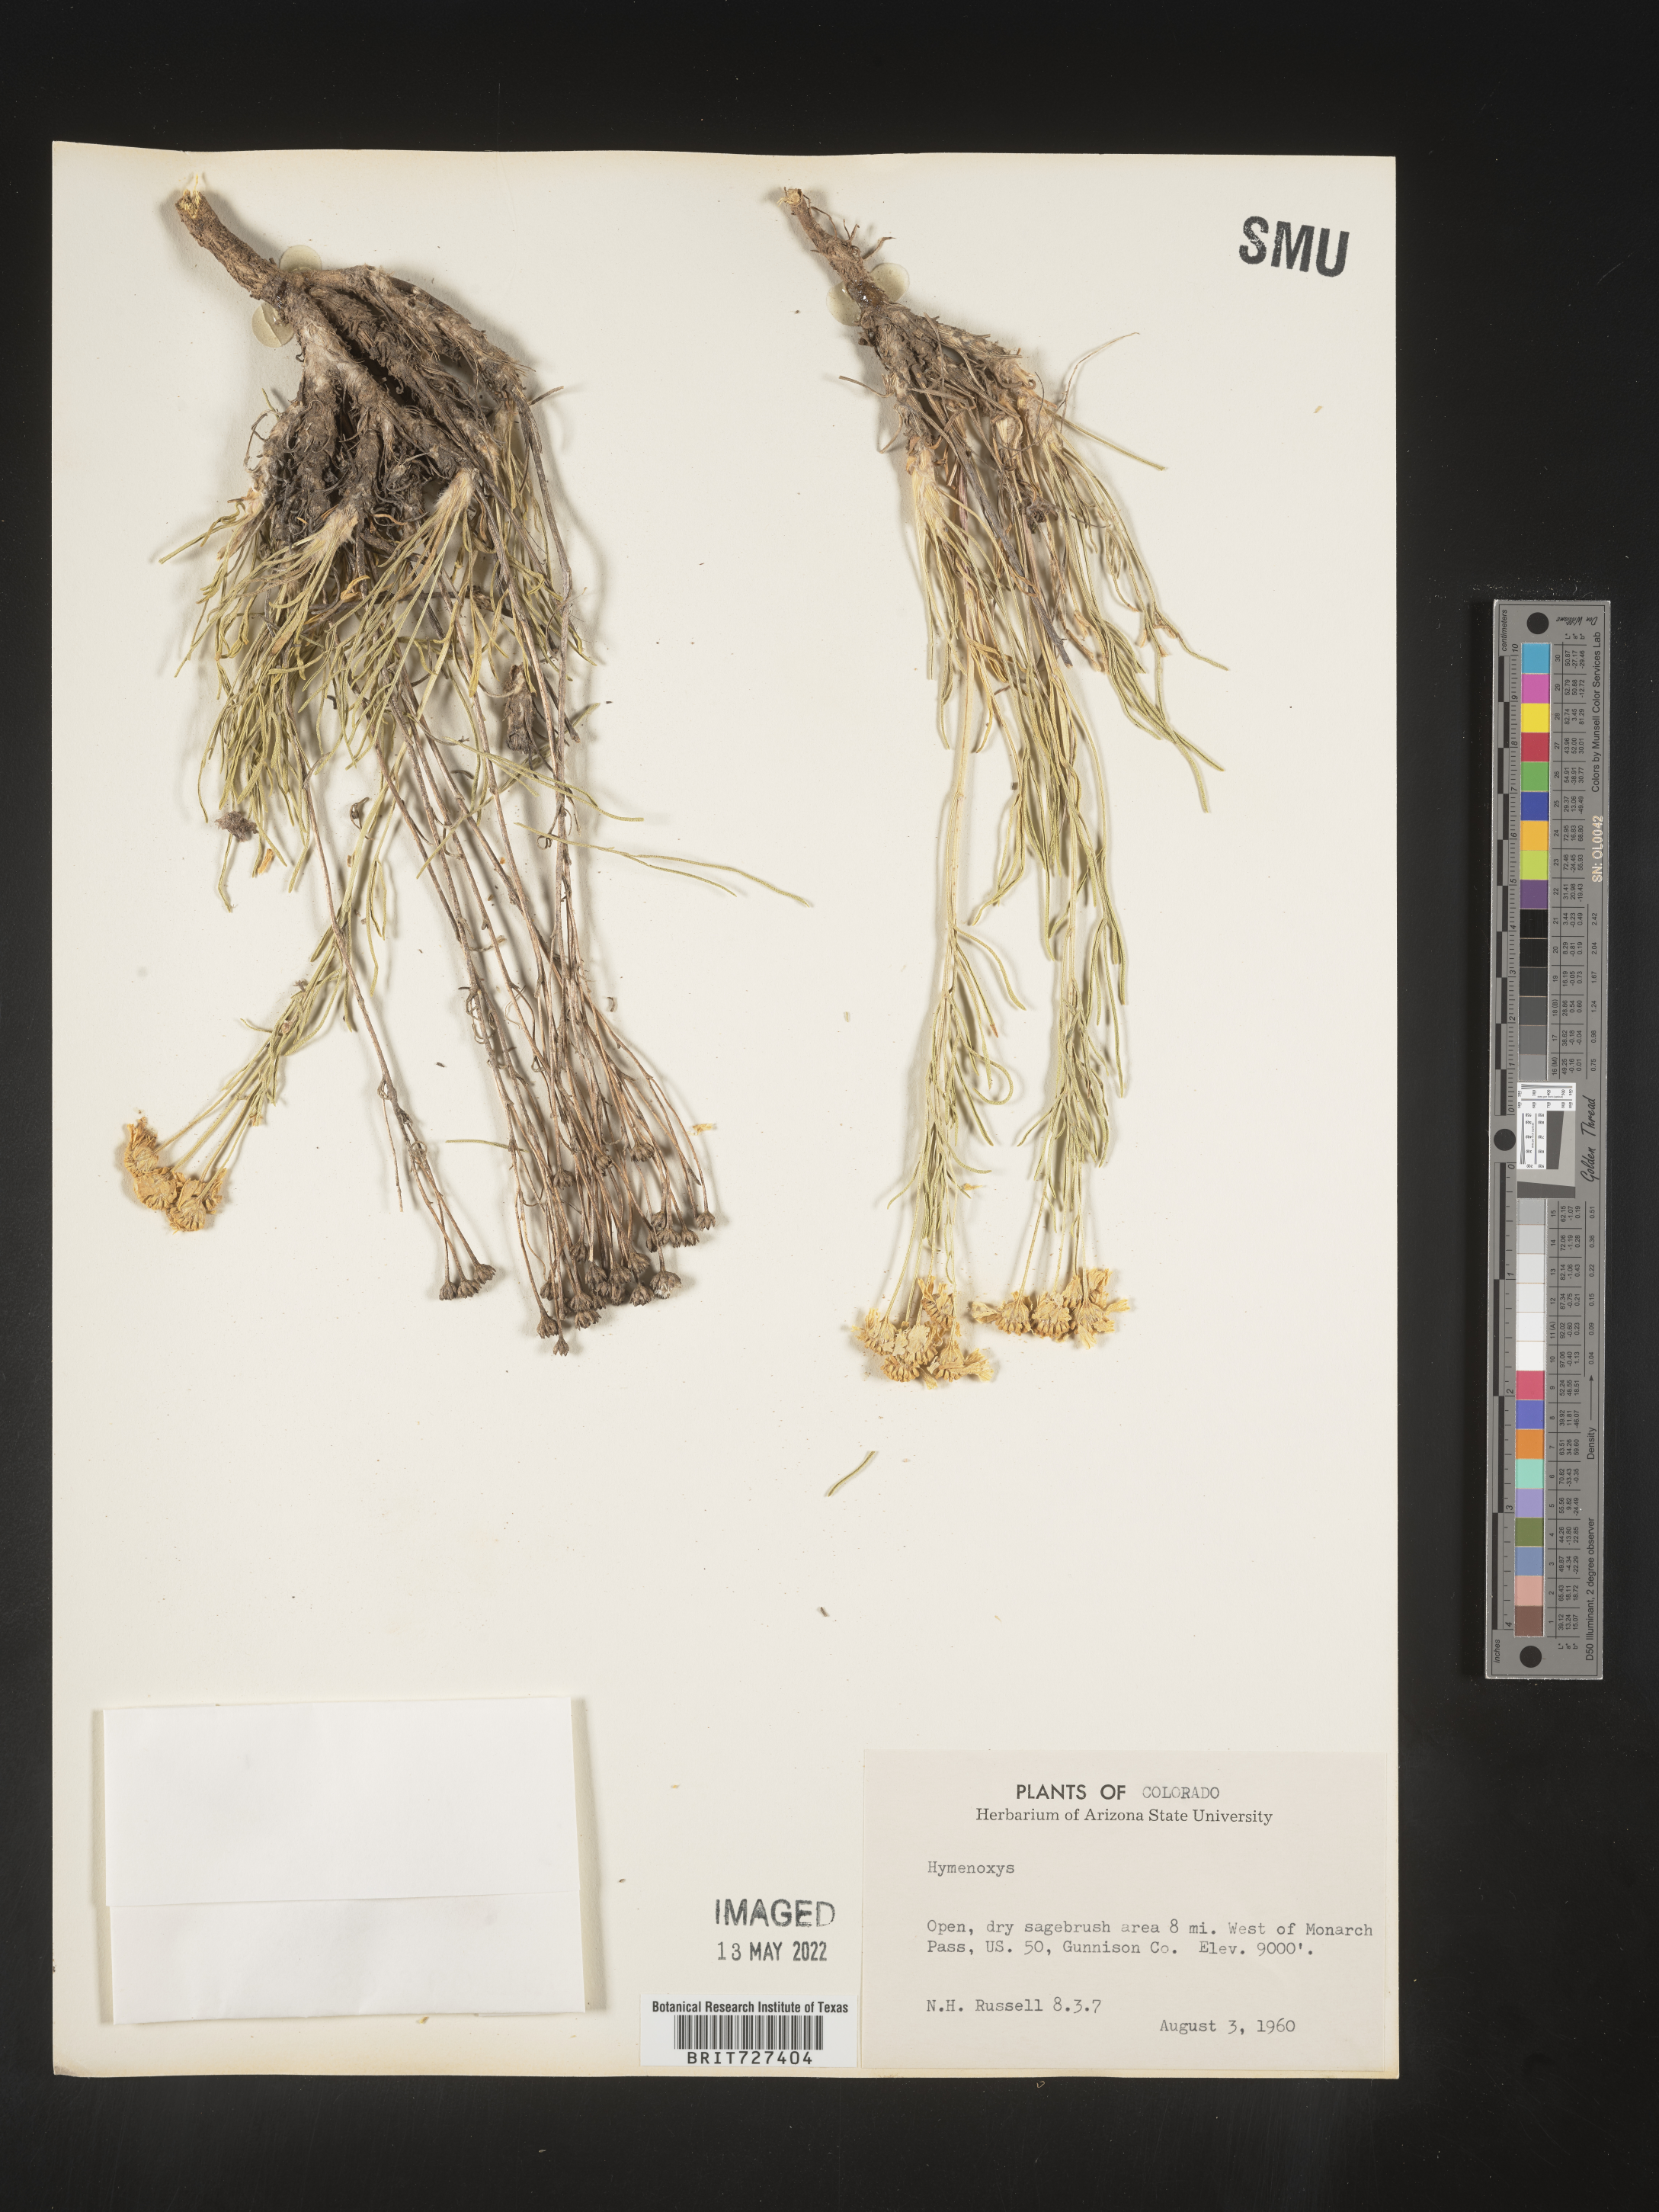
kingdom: Plantae
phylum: Tracheophyta
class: Magnoliopsida
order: Asterales
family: Asteraceae
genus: Hymenoxys
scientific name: Hymenoxys
